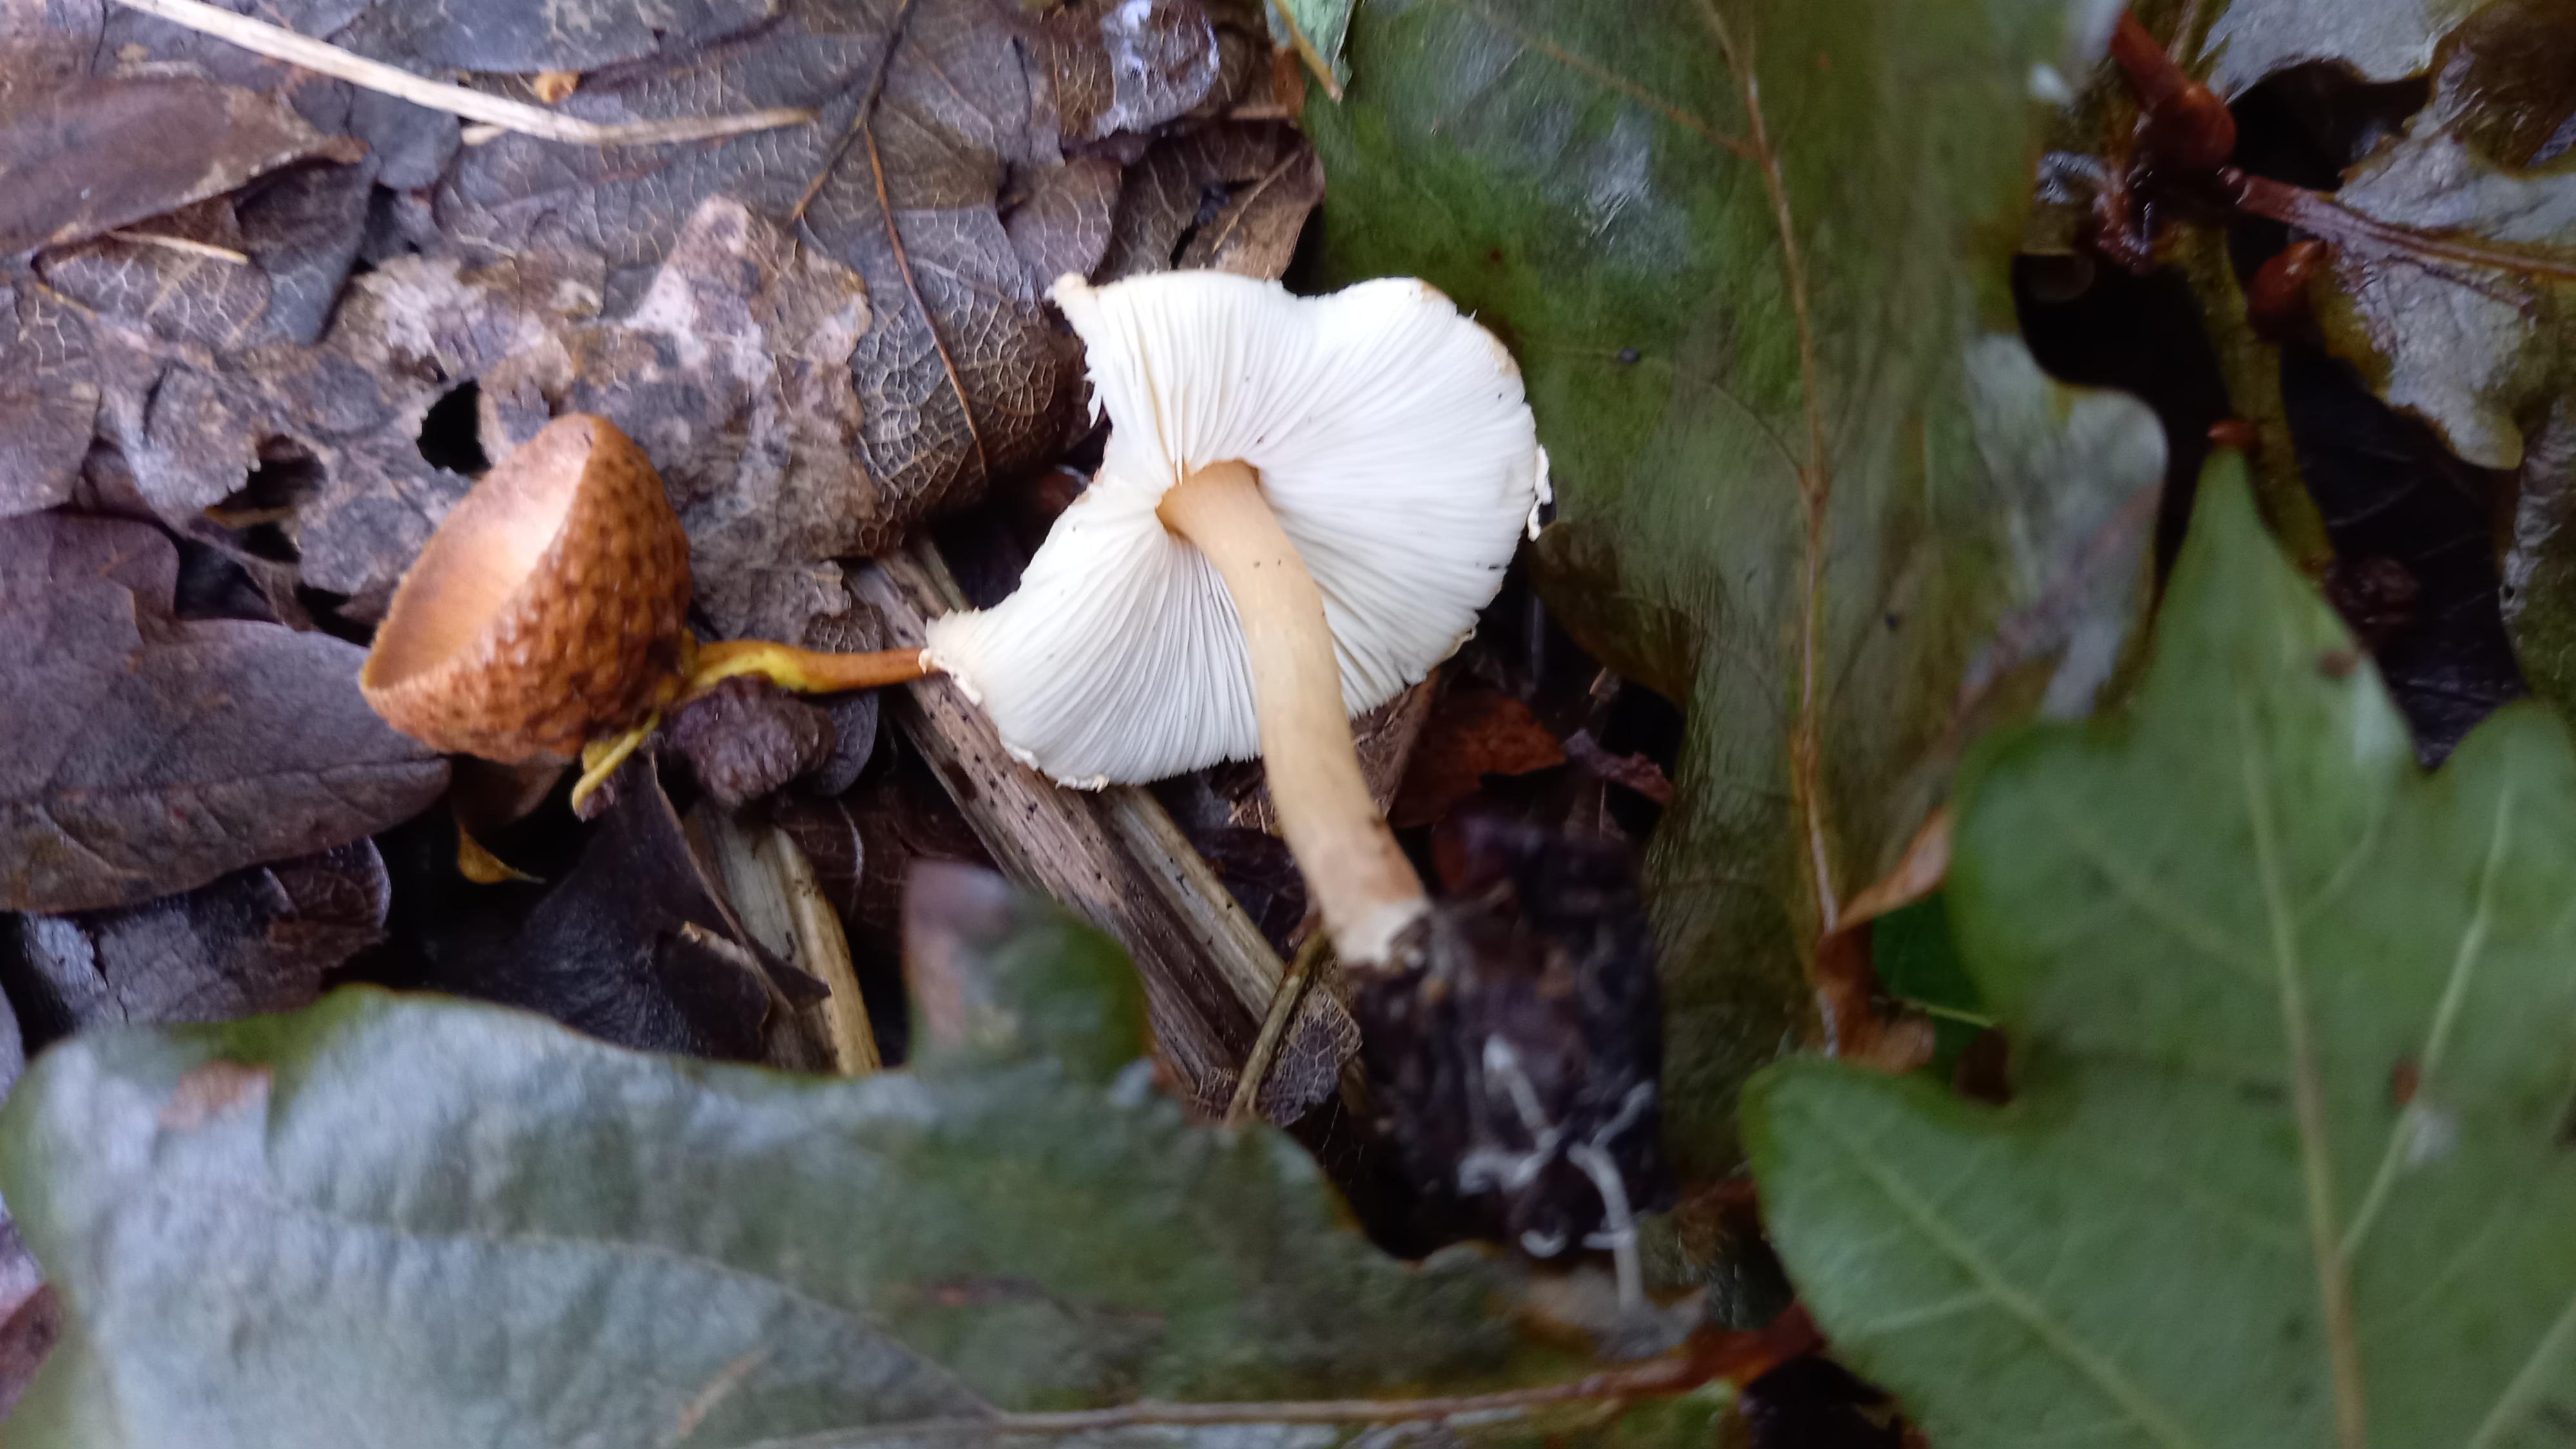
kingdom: Fungi
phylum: Basidiomycota
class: Agaricomycetes
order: Agaricales
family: Agaricaceae
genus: Lepiota
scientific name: Lepiota cristata
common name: stinkende parasolhat
